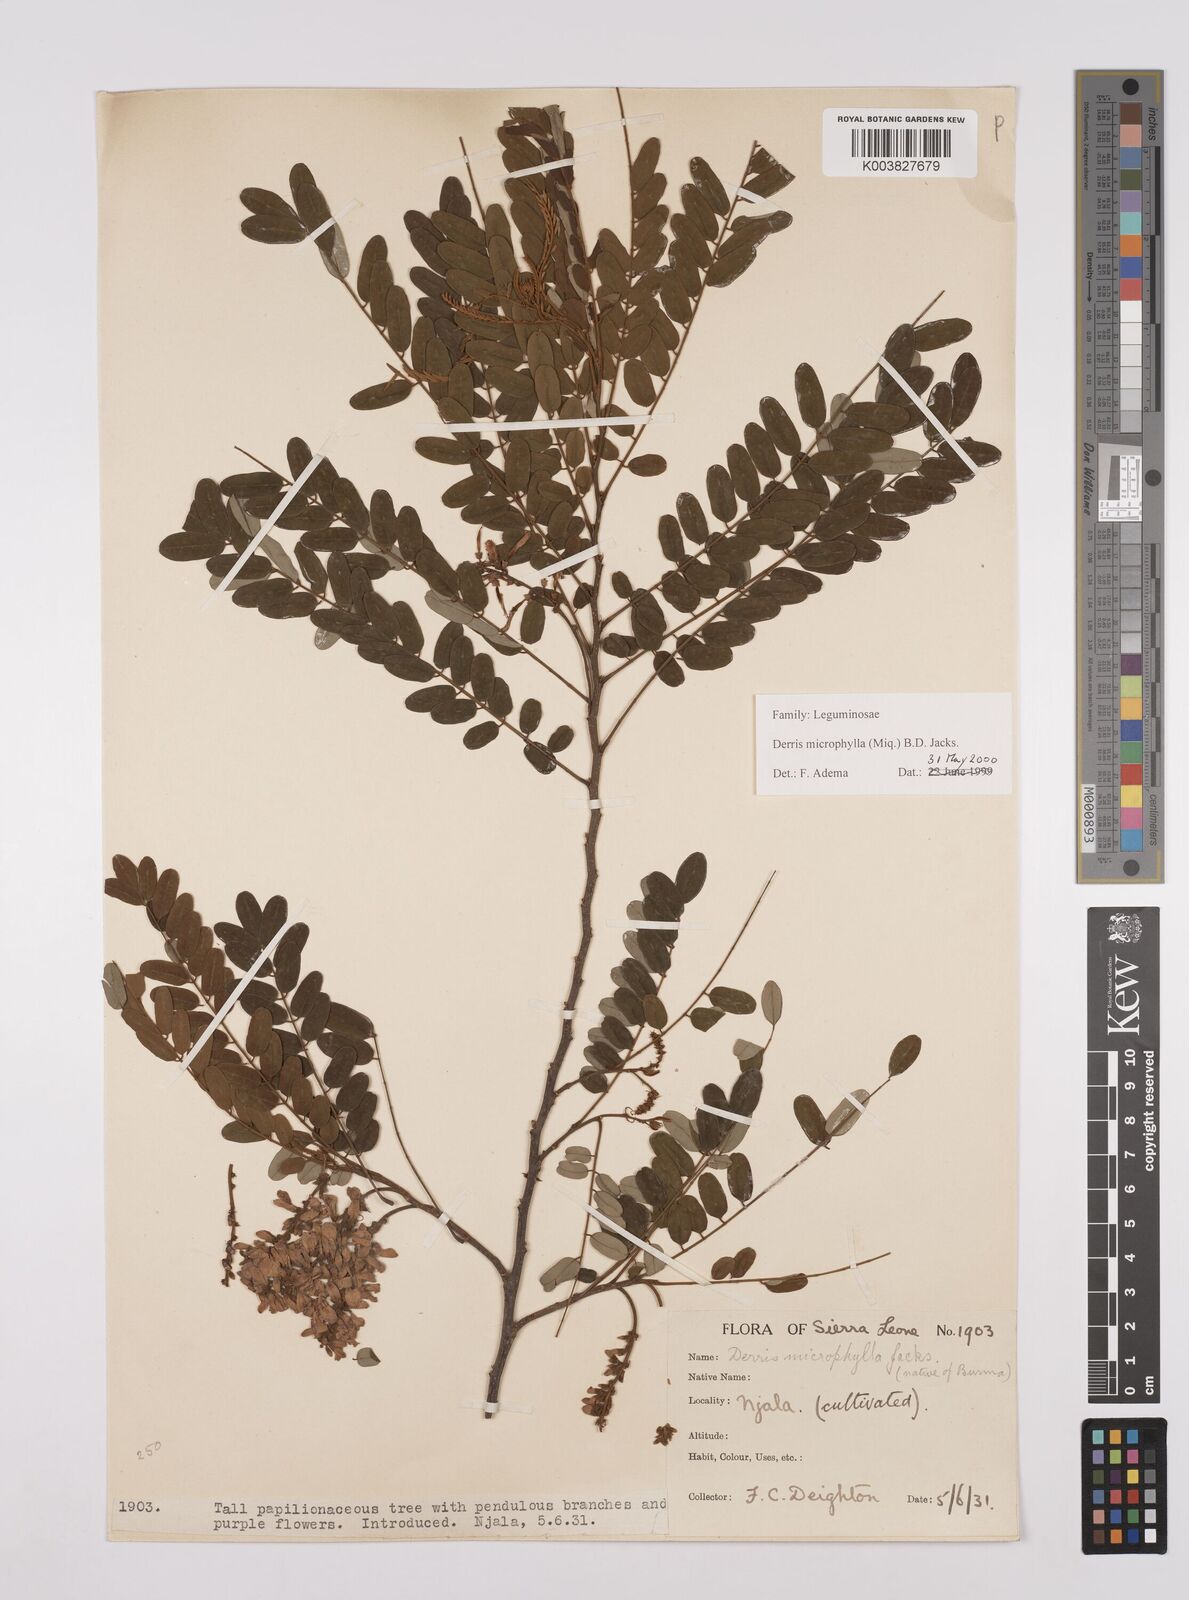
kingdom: Plantae
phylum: Tracheophyta
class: Magnoliopsida
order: Fabales
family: Fabaceae
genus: Brachypterum
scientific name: Brachypterum microphyllum
